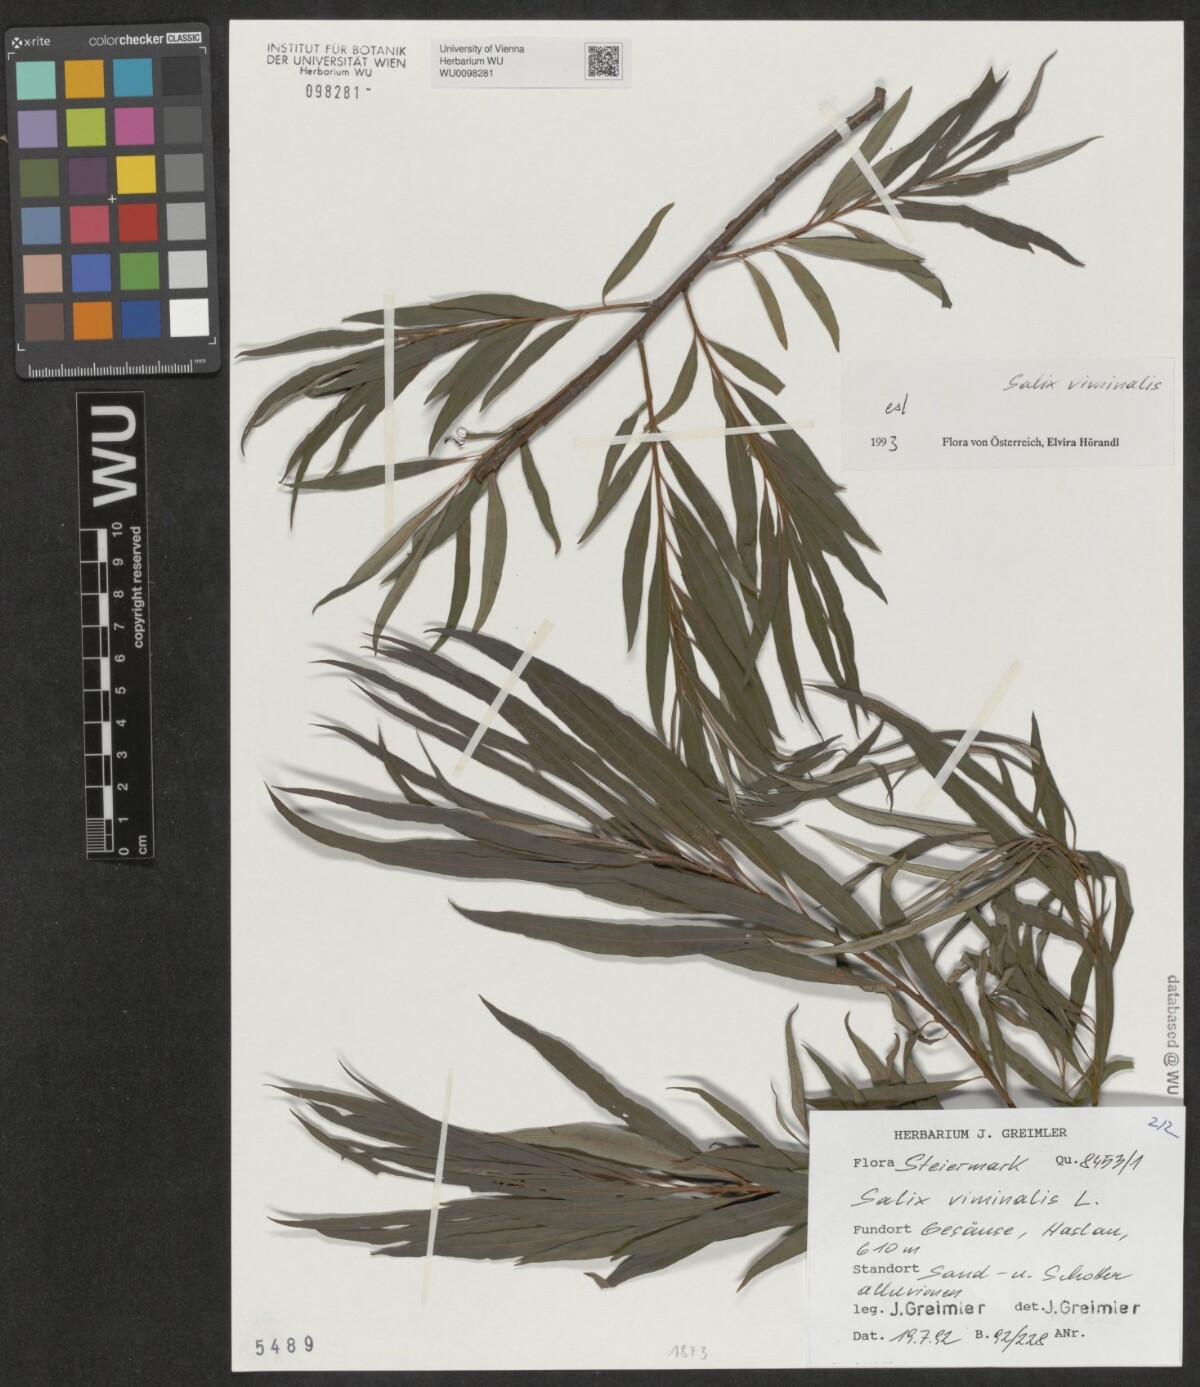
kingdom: Plantae
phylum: Tracheophyta
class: Magnoliopsida
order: Malpighiales
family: Salicaceae
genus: Salix
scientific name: Salix viminalis
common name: Osier
